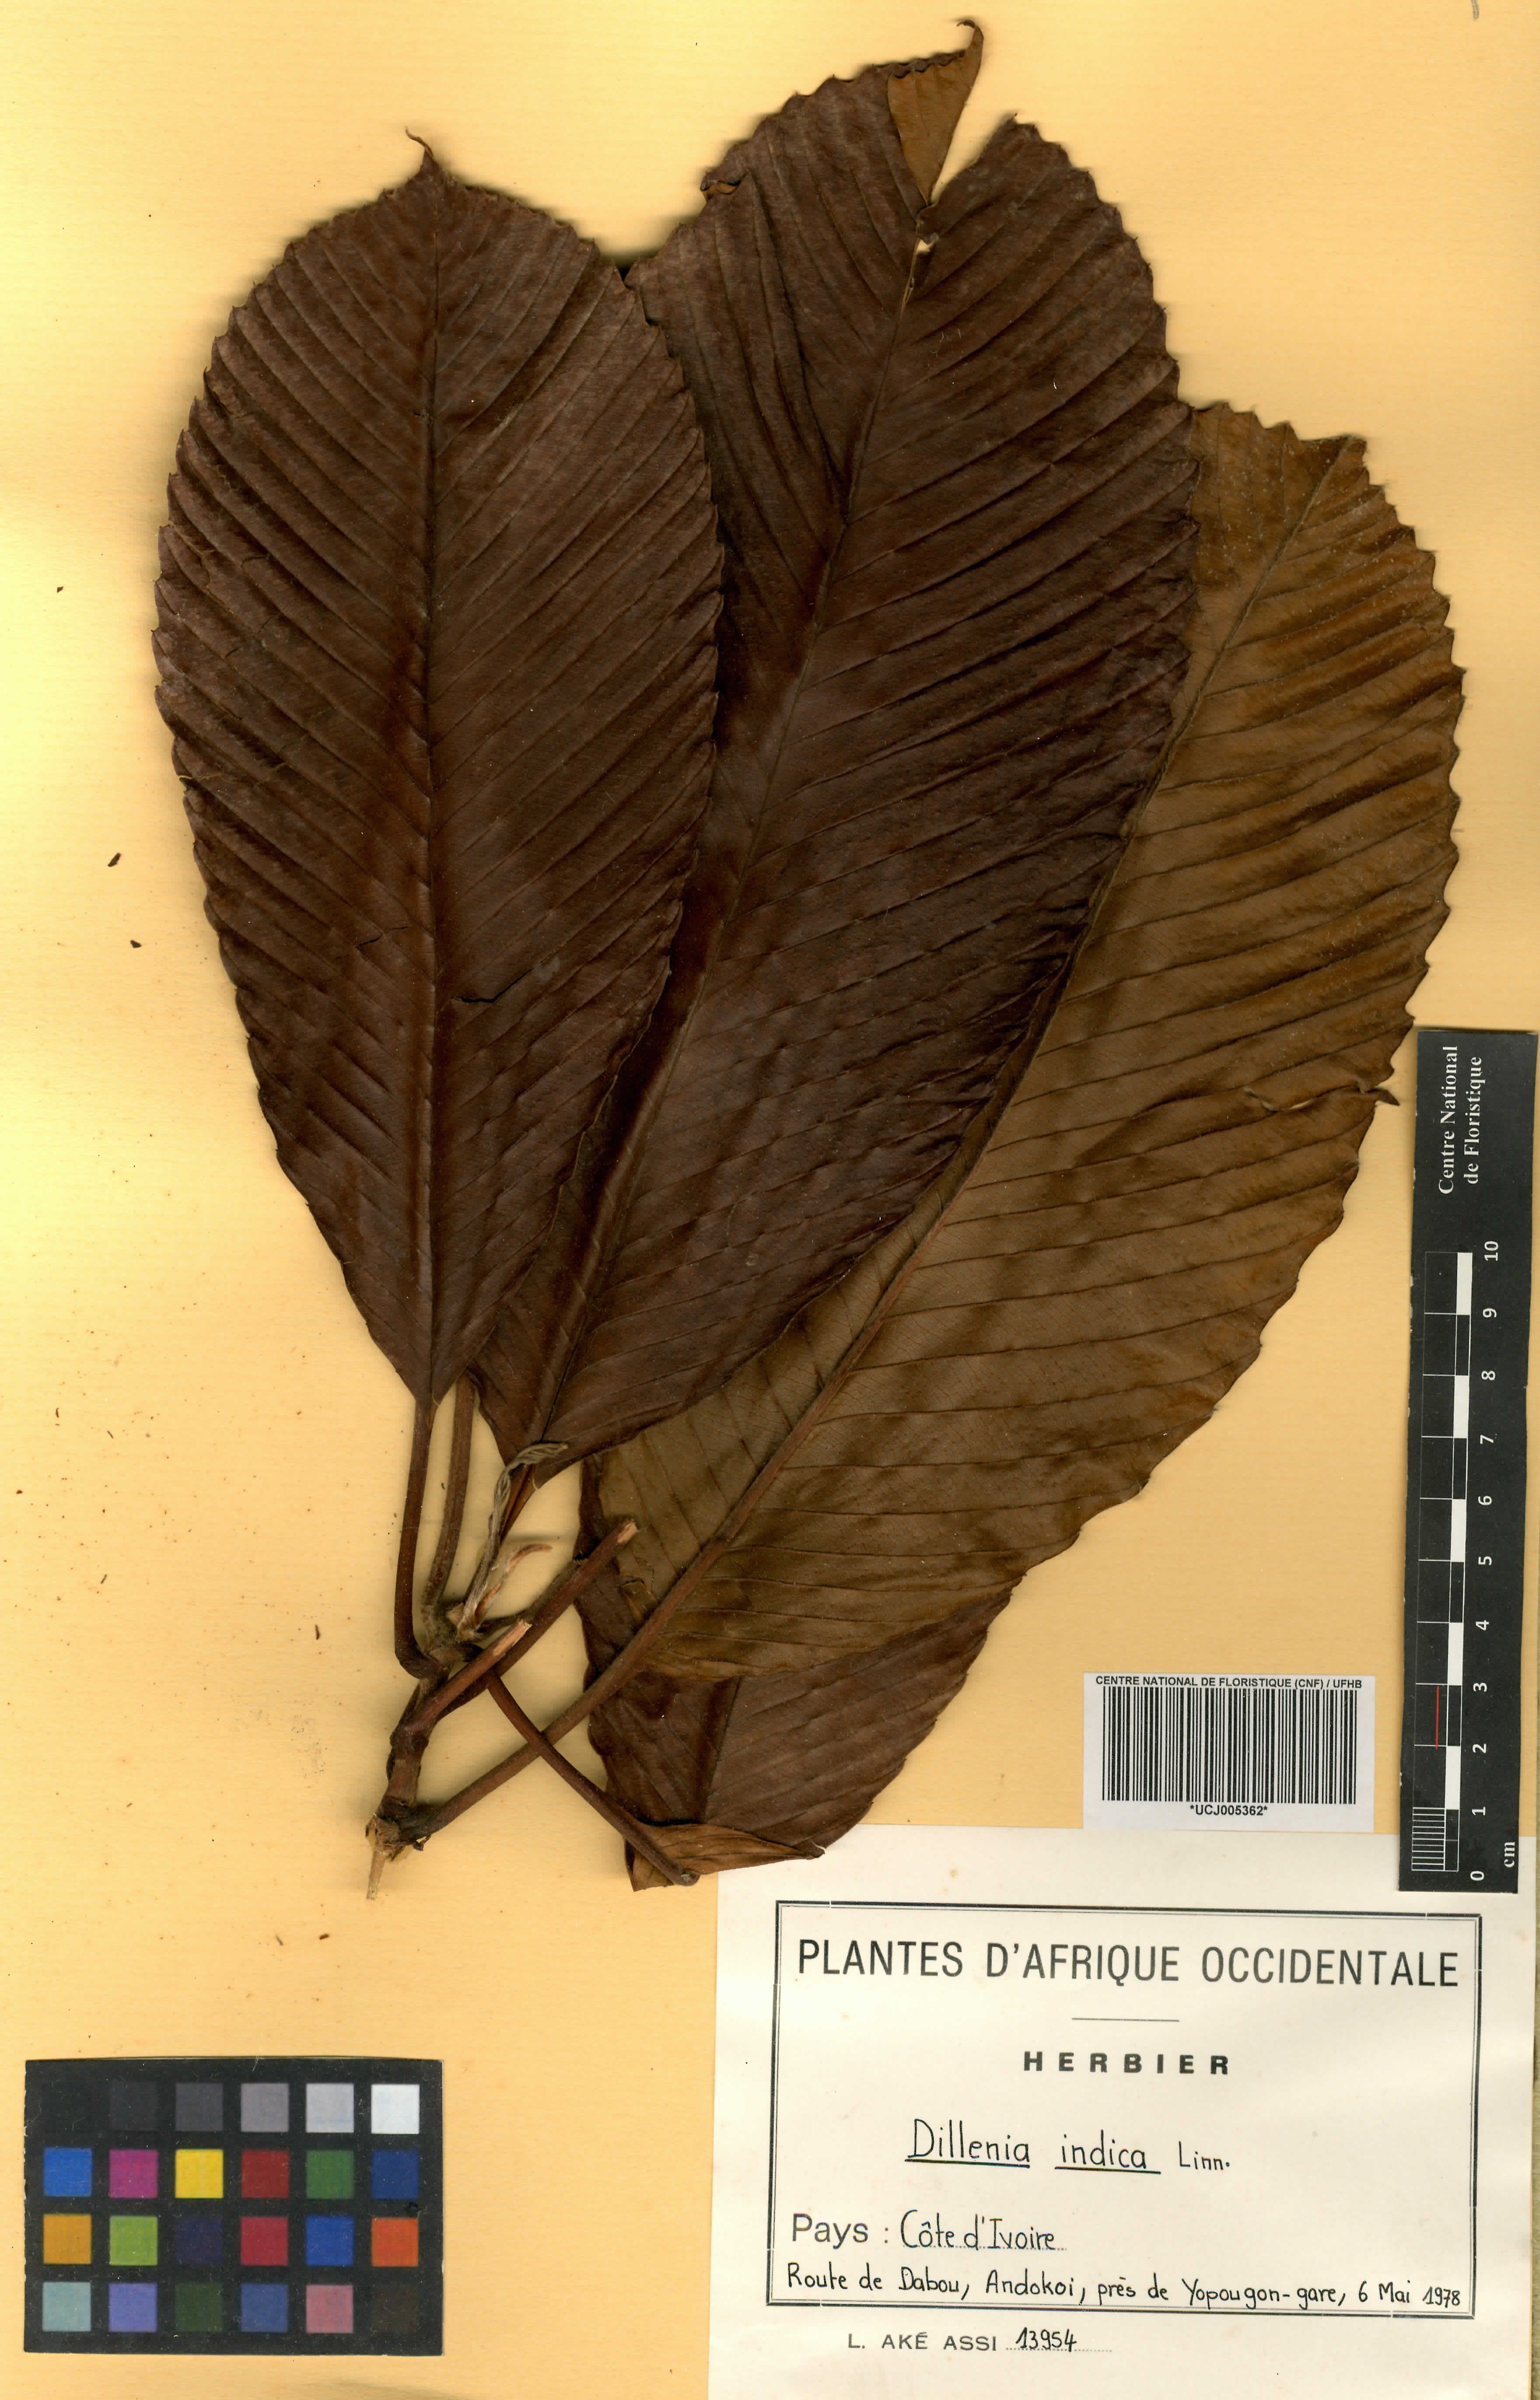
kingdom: Plantae
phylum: Tracheophyta
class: Magnoliopsida
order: Dilleniales
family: Dilleniaceae
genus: Dillenia
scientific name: Dillenia indica
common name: Elephant apple
